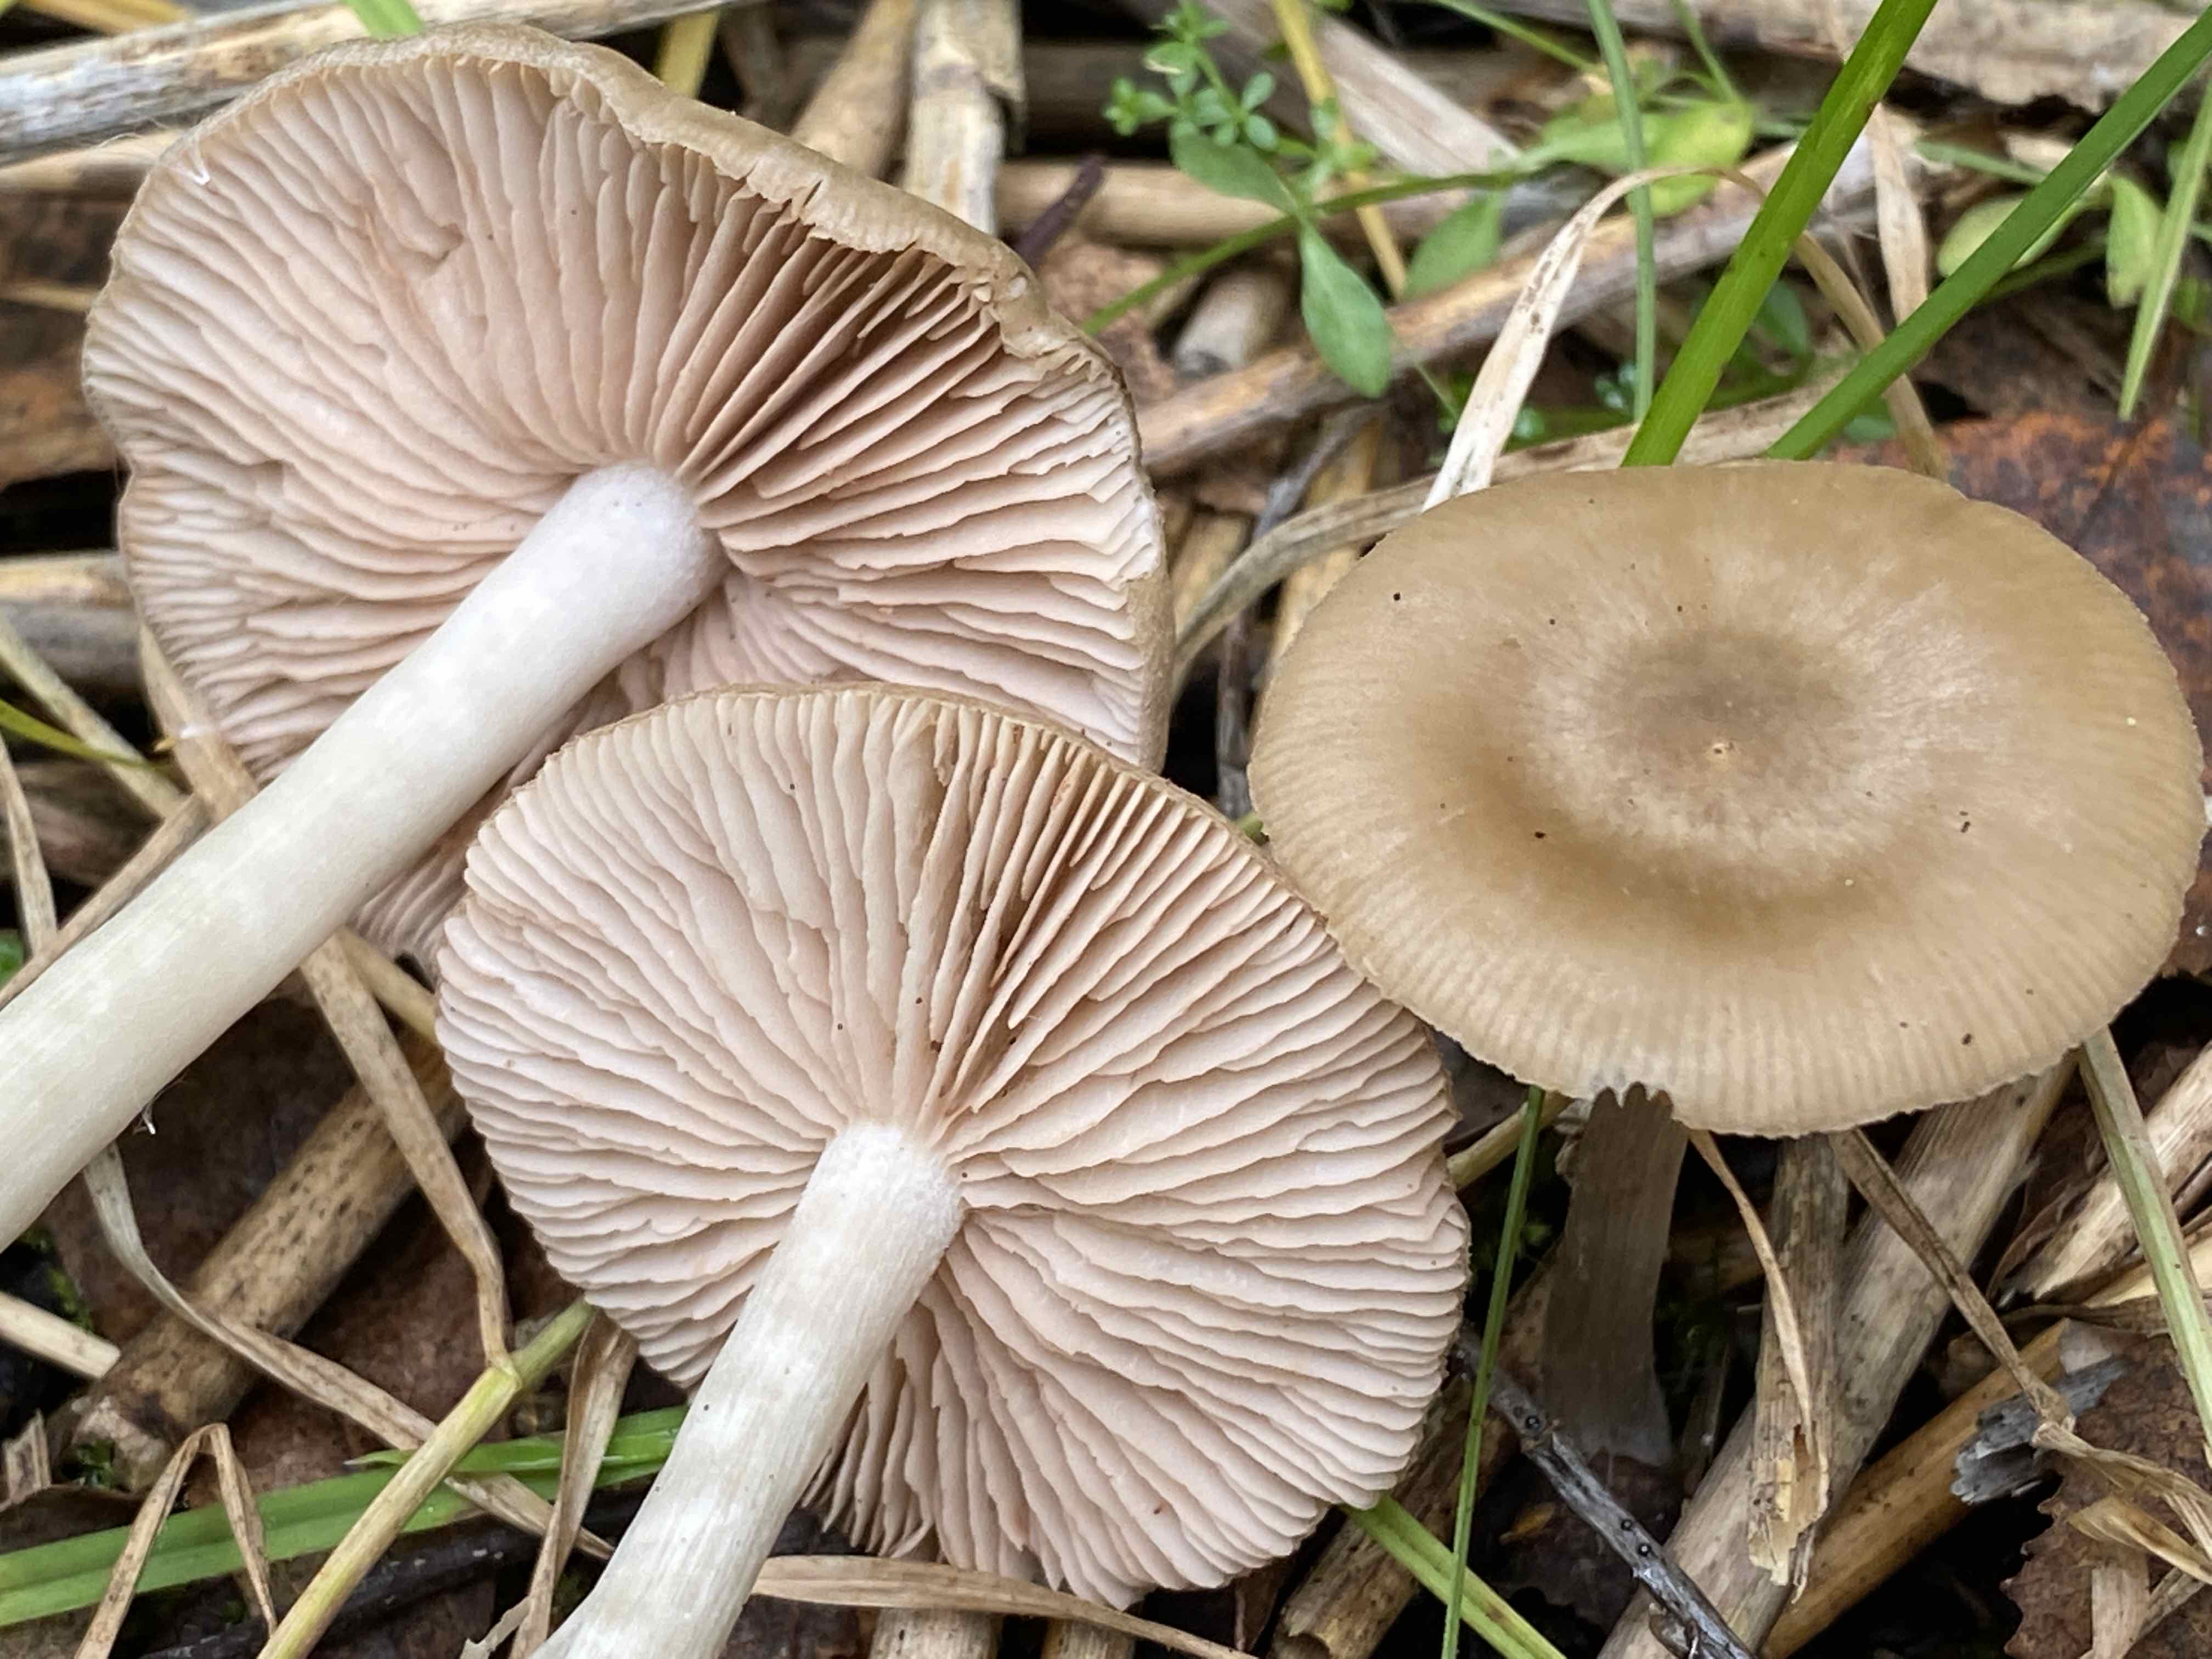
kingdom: Fungi
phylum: Basidiomycota
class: Agaricomycetes
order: Agaricales
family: Entolomataceae
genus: Entoloma
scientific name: Entoloma
